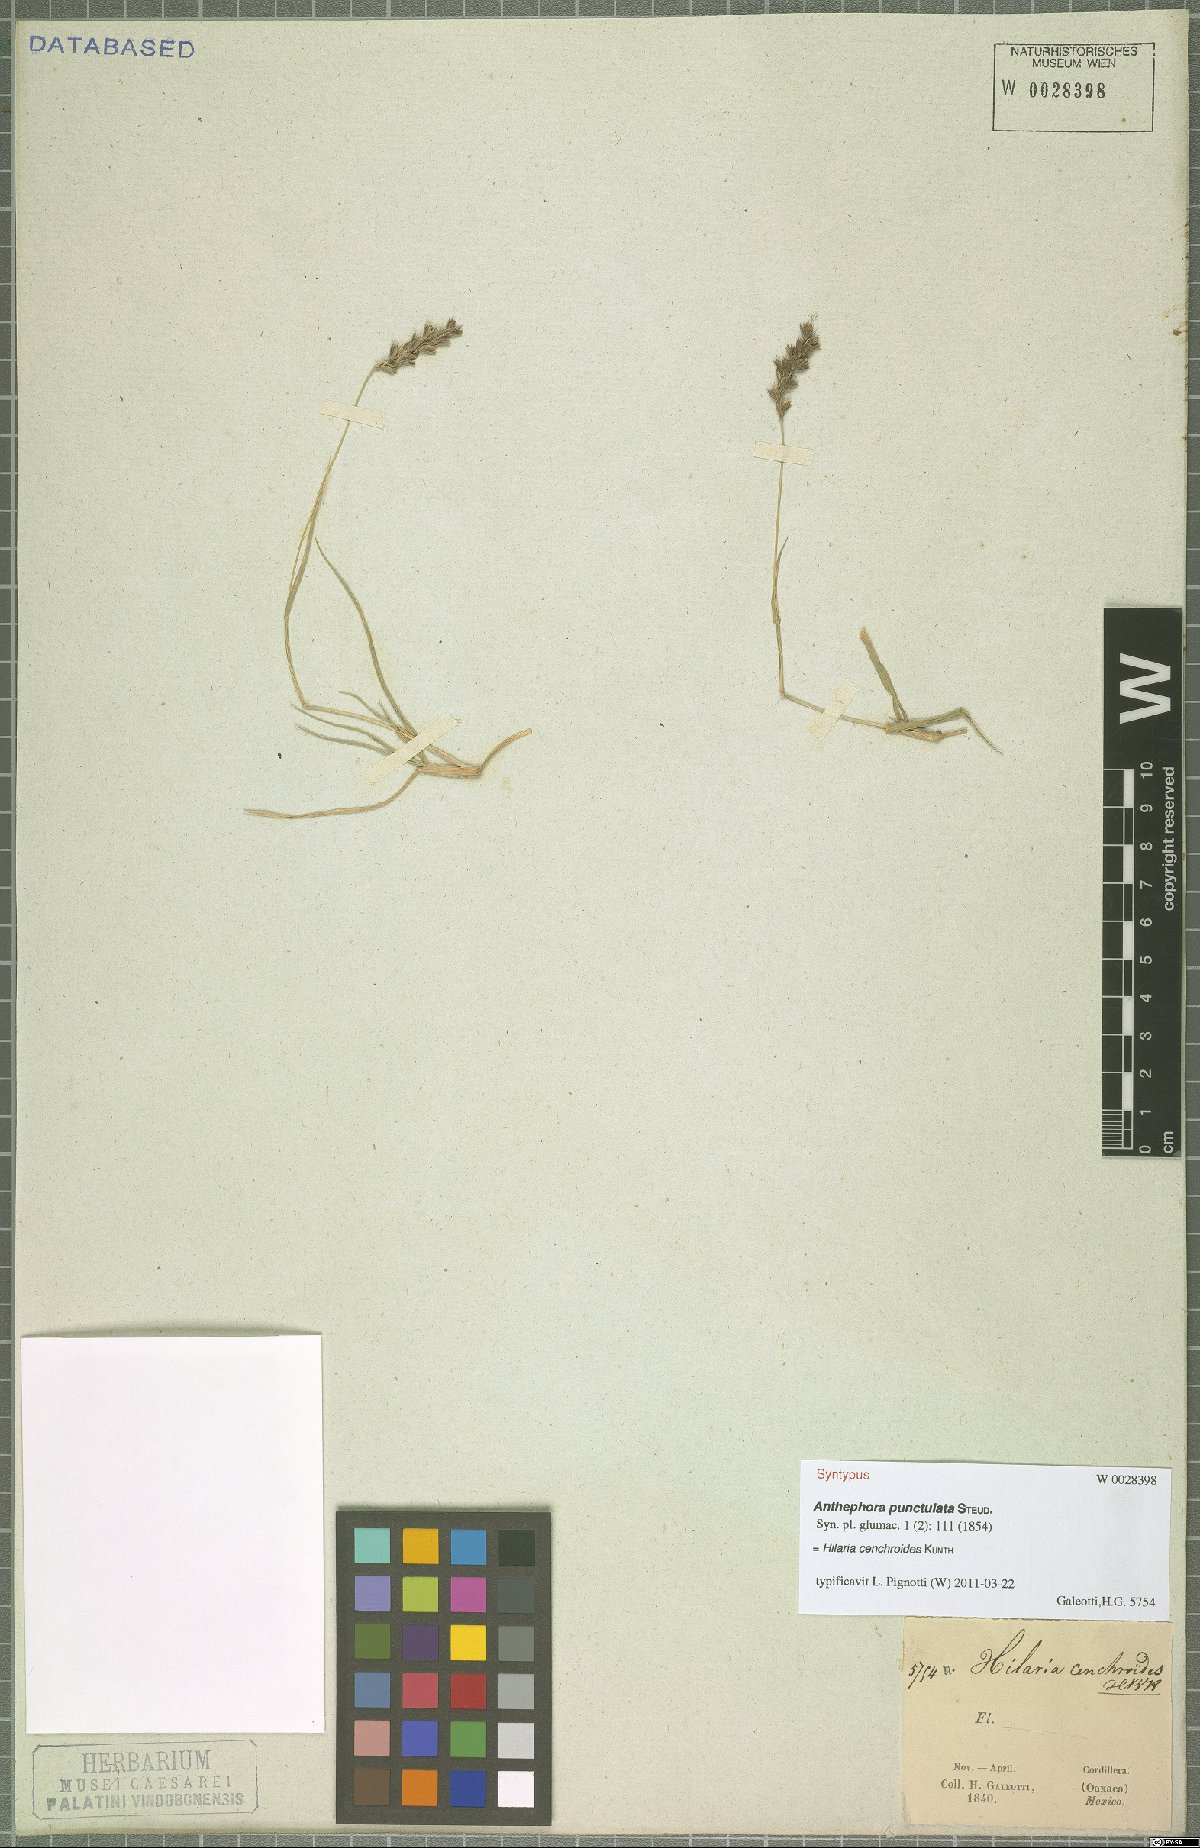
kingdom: Plantae
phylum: Tracheophyta
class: Liliopsida
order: Poales
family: Poaceae
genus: Hilaria
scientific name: Hilaria cenchroides
